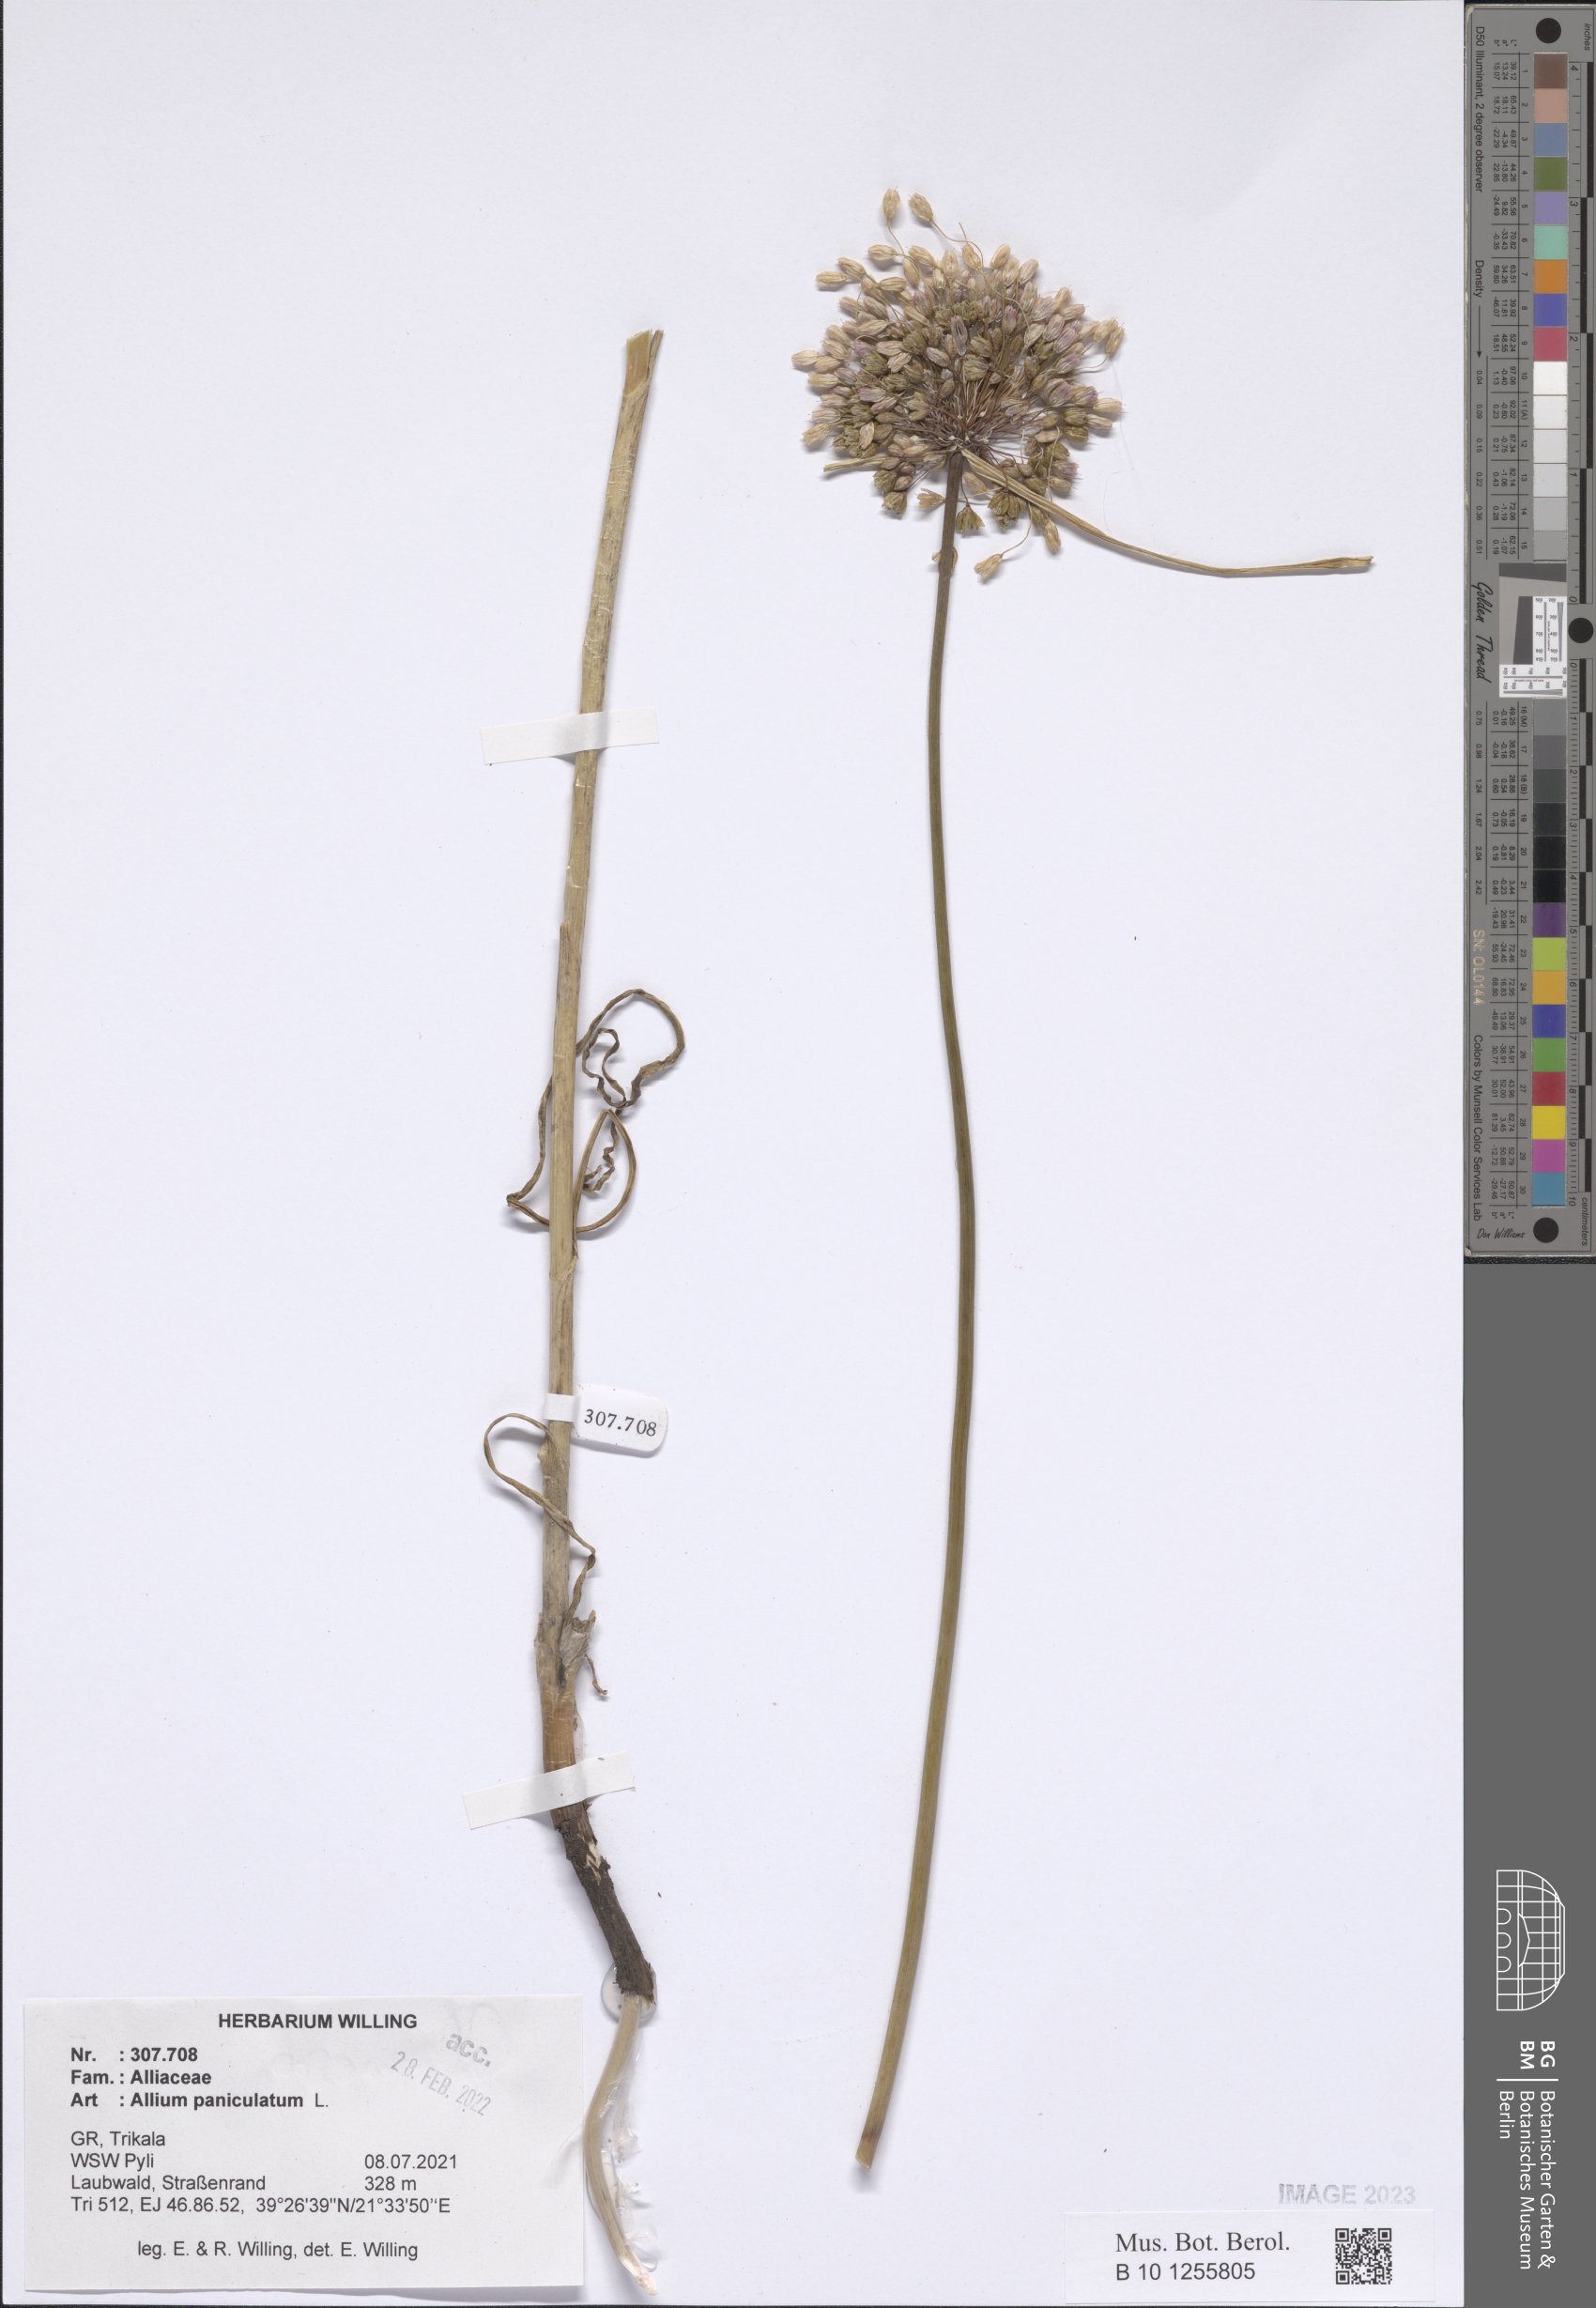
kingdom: Plantae
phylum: Tracheophyta
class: Liliopsida
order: Asparagales
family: Amaryllidaceae
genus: Allium
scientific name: Allium paniculatum
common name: Pale garlic
